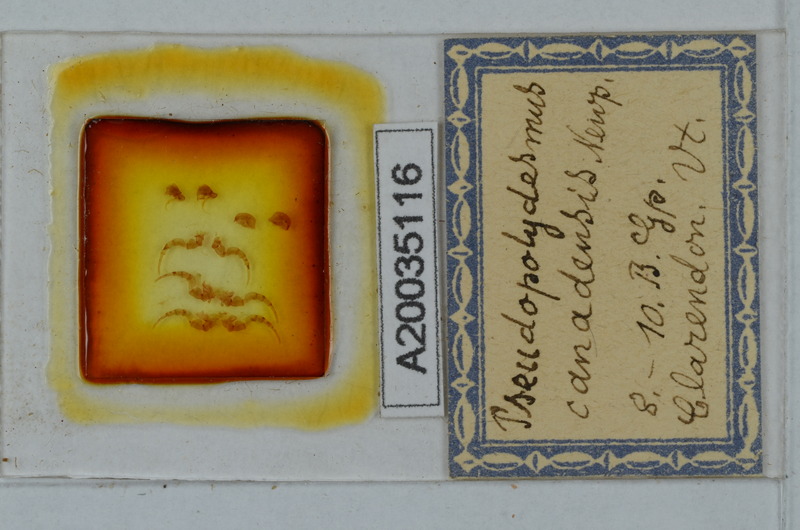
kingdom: Animalia
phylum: Arthropoda
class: Diplopoda
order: Polydesmida
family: Polydesmidae
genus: Pseudopolydesmus
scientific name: Pseudopolydesmus canadensis
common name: Canadian flat-back millipede
